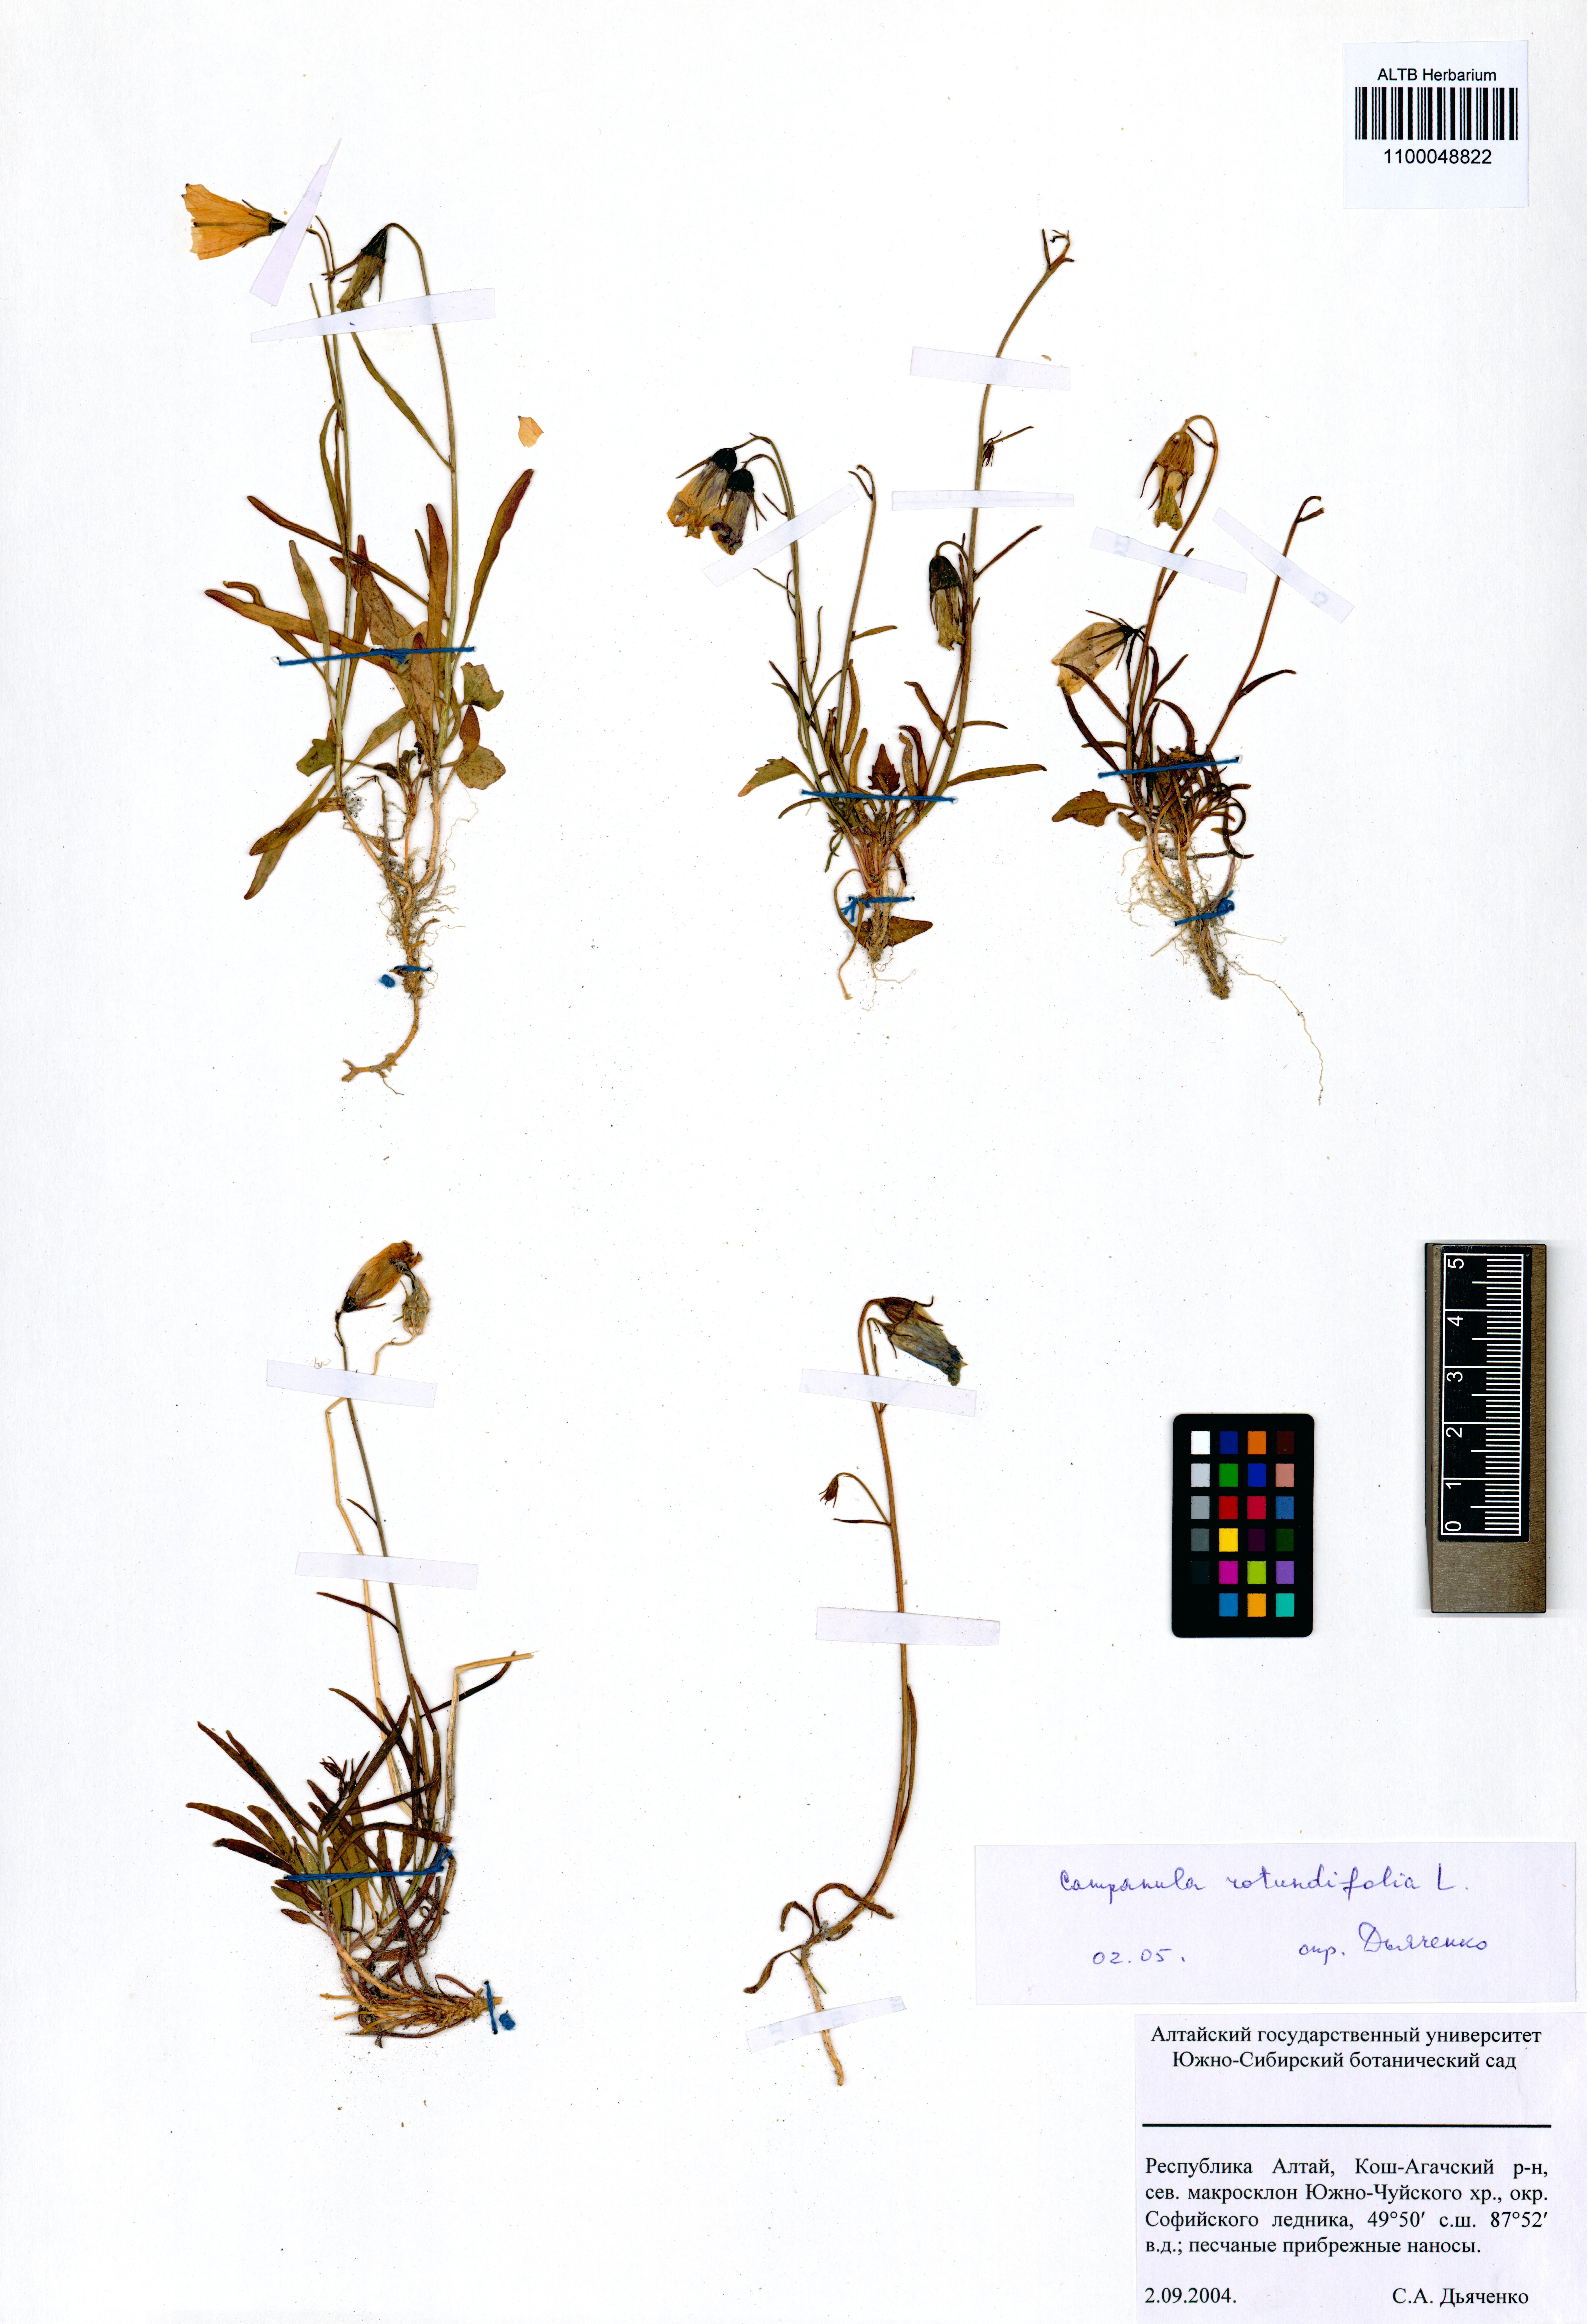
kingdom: Plantae
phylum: Tracheophyta
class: Magnoliopsida
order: Asterales
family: Campanulaceae
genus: Campanula
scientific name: Campanula rotundifolia
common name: Harebell
